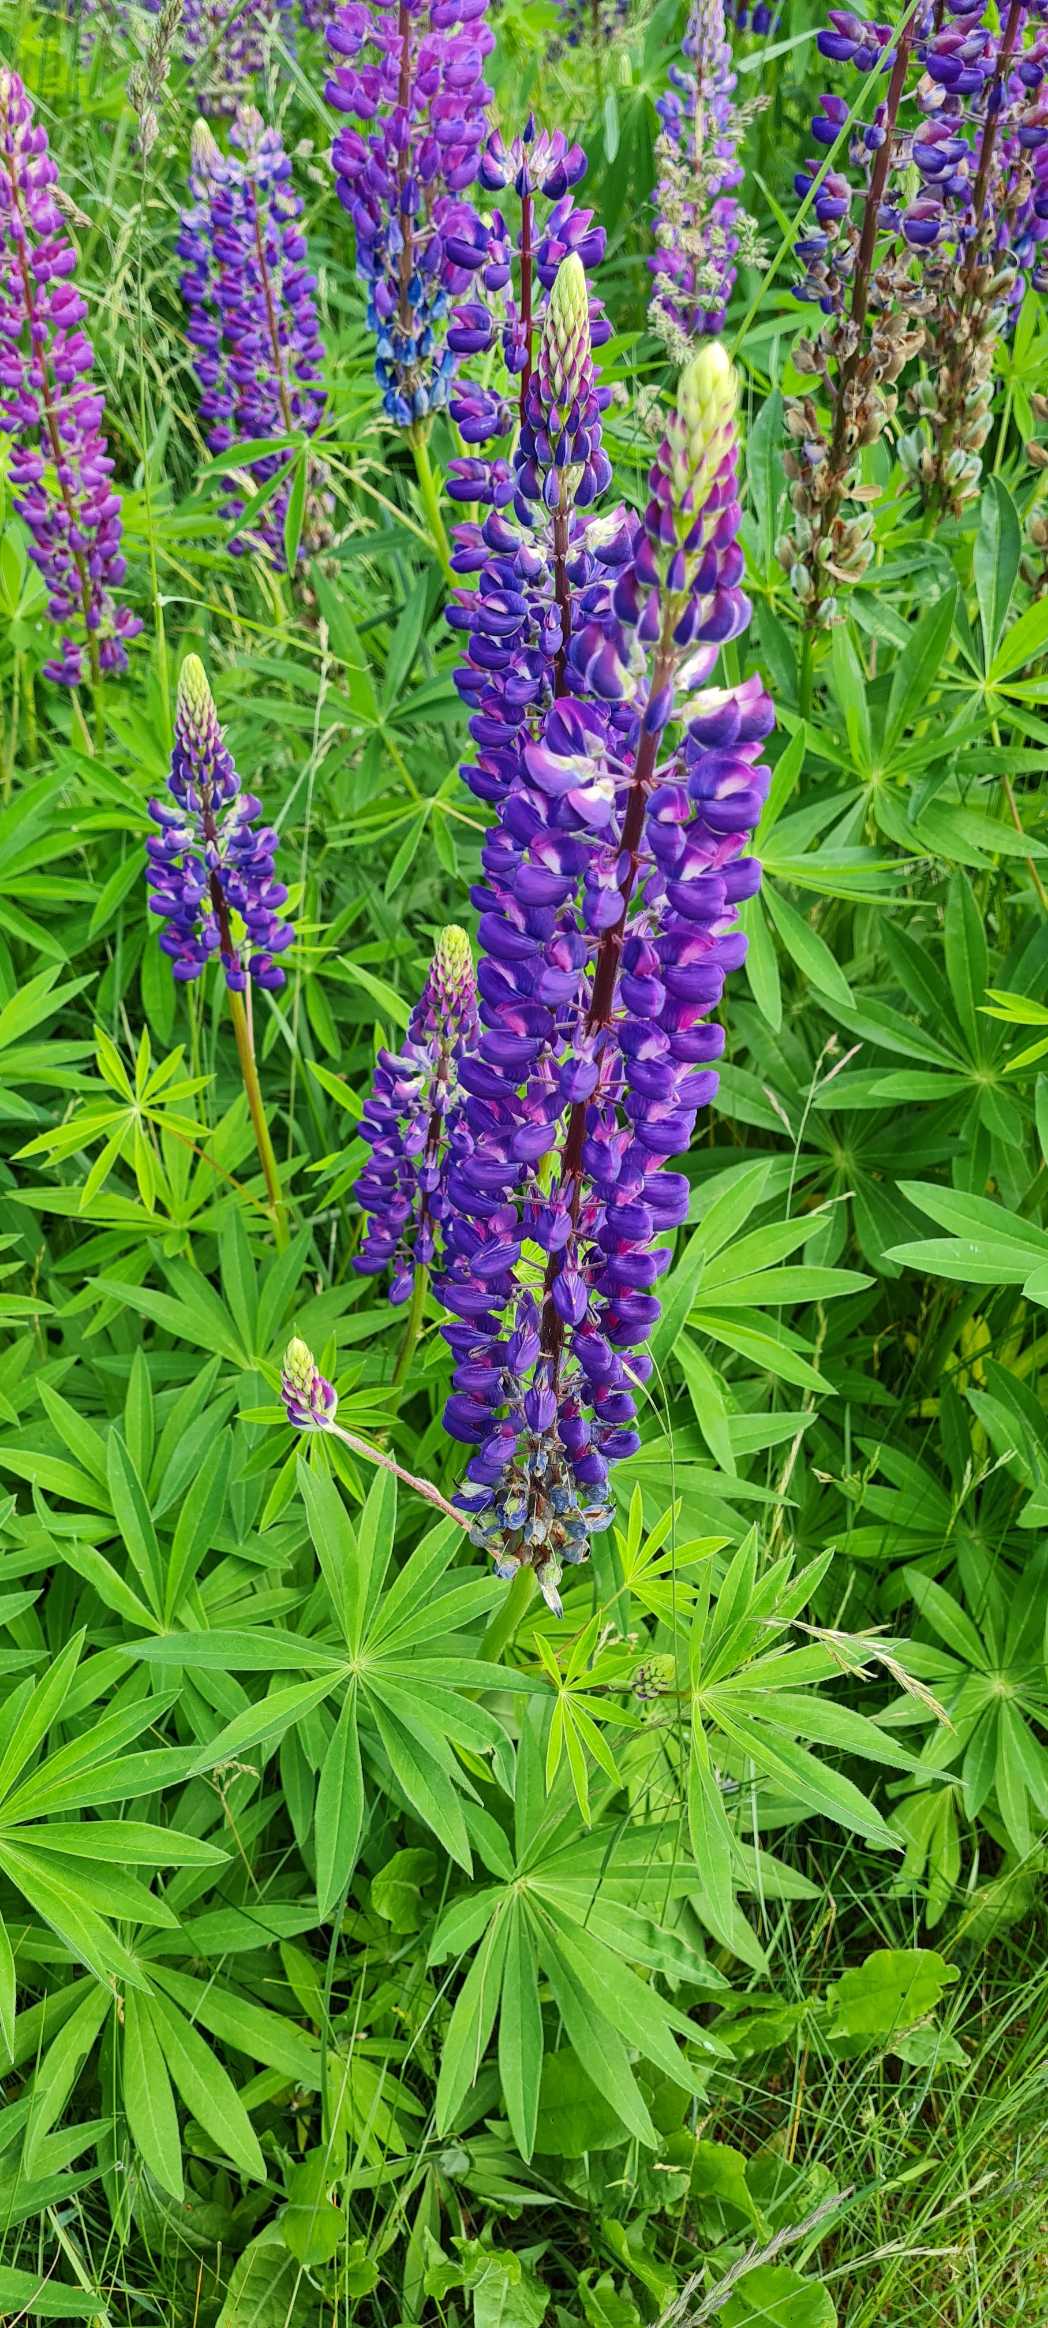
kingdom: Plantae
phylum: Tracheophyta
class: Magnoliopsida
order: Fabales
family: Fabaceae
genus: Lupinus
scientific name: Lupinus polyphyllus
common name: Mangebladet lupin
